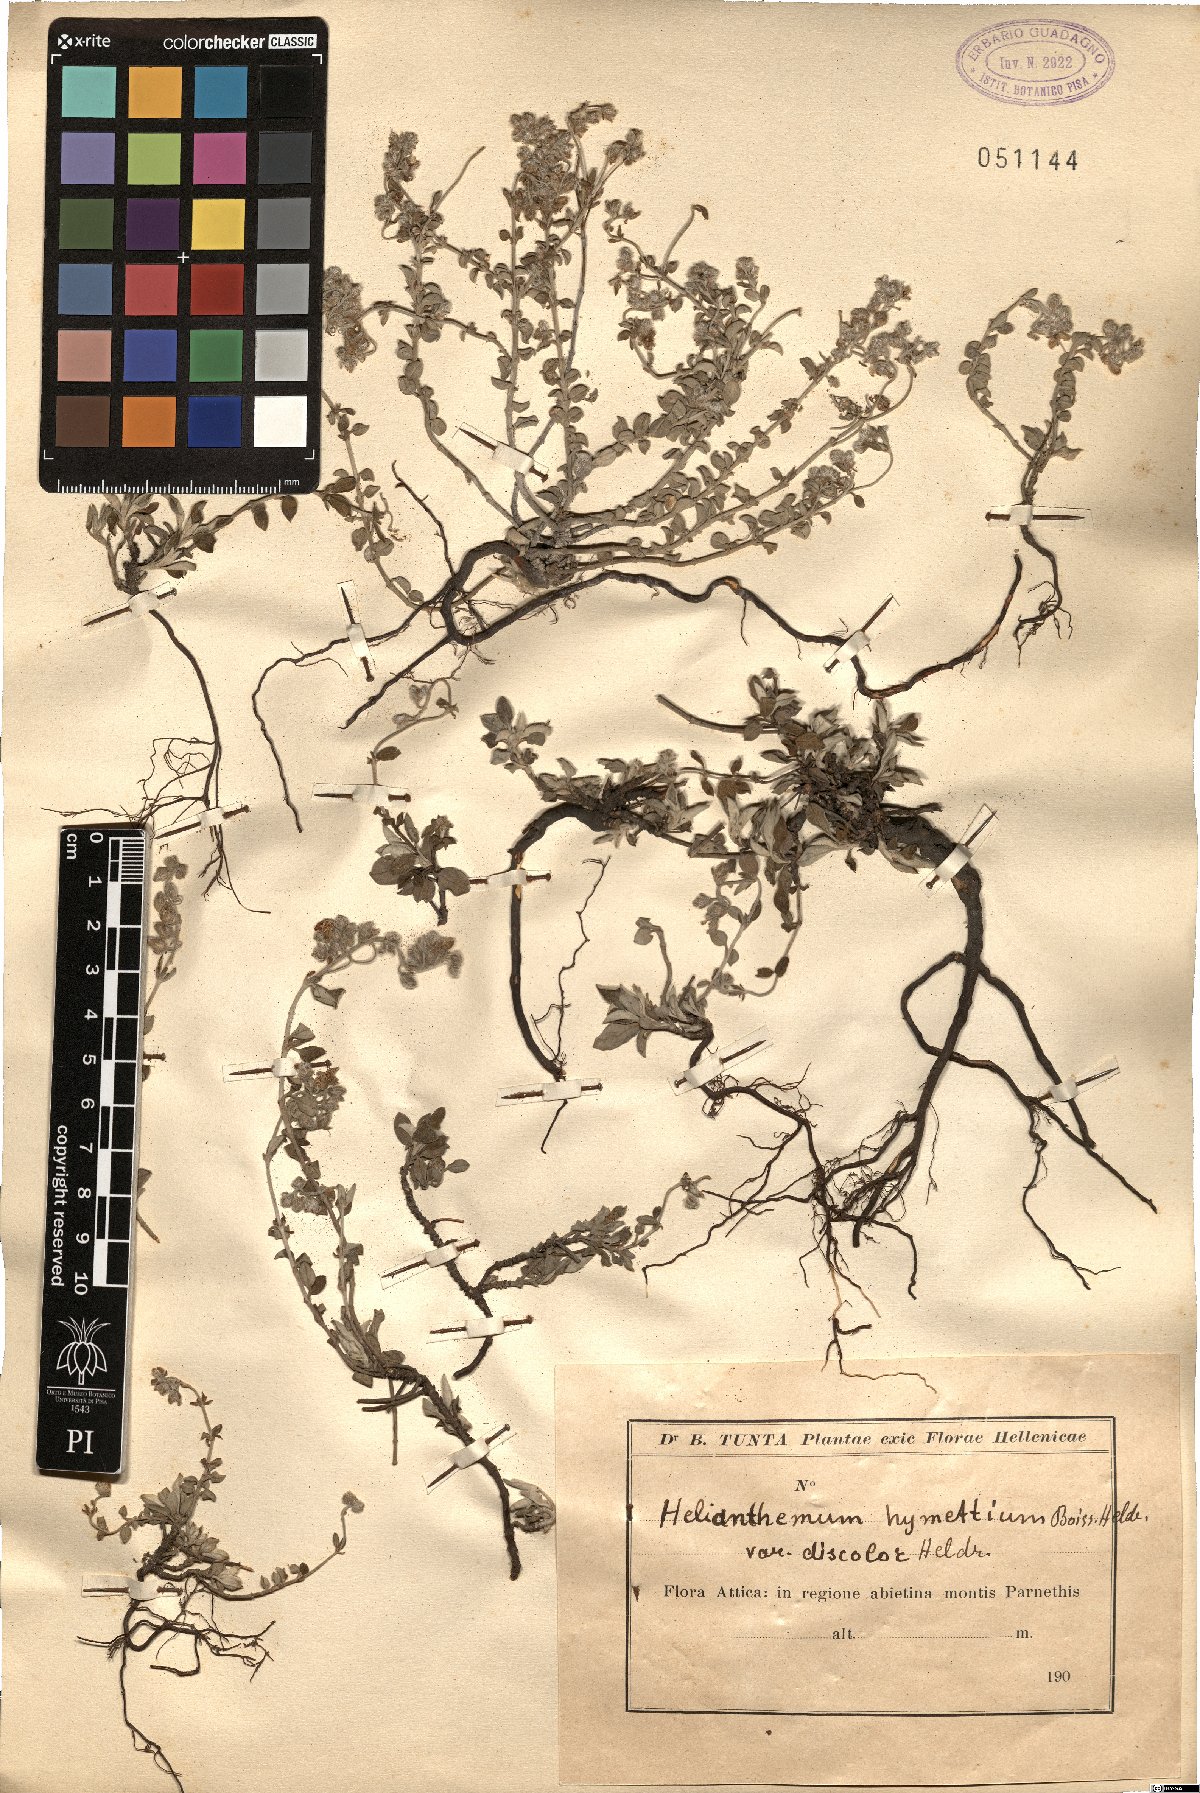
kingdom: Plantae
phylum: Tracheophyta
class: Magnoliopsida
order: Malvales
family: Cistaceae
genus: Helianthemum
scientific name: Helianthemum hymettium
